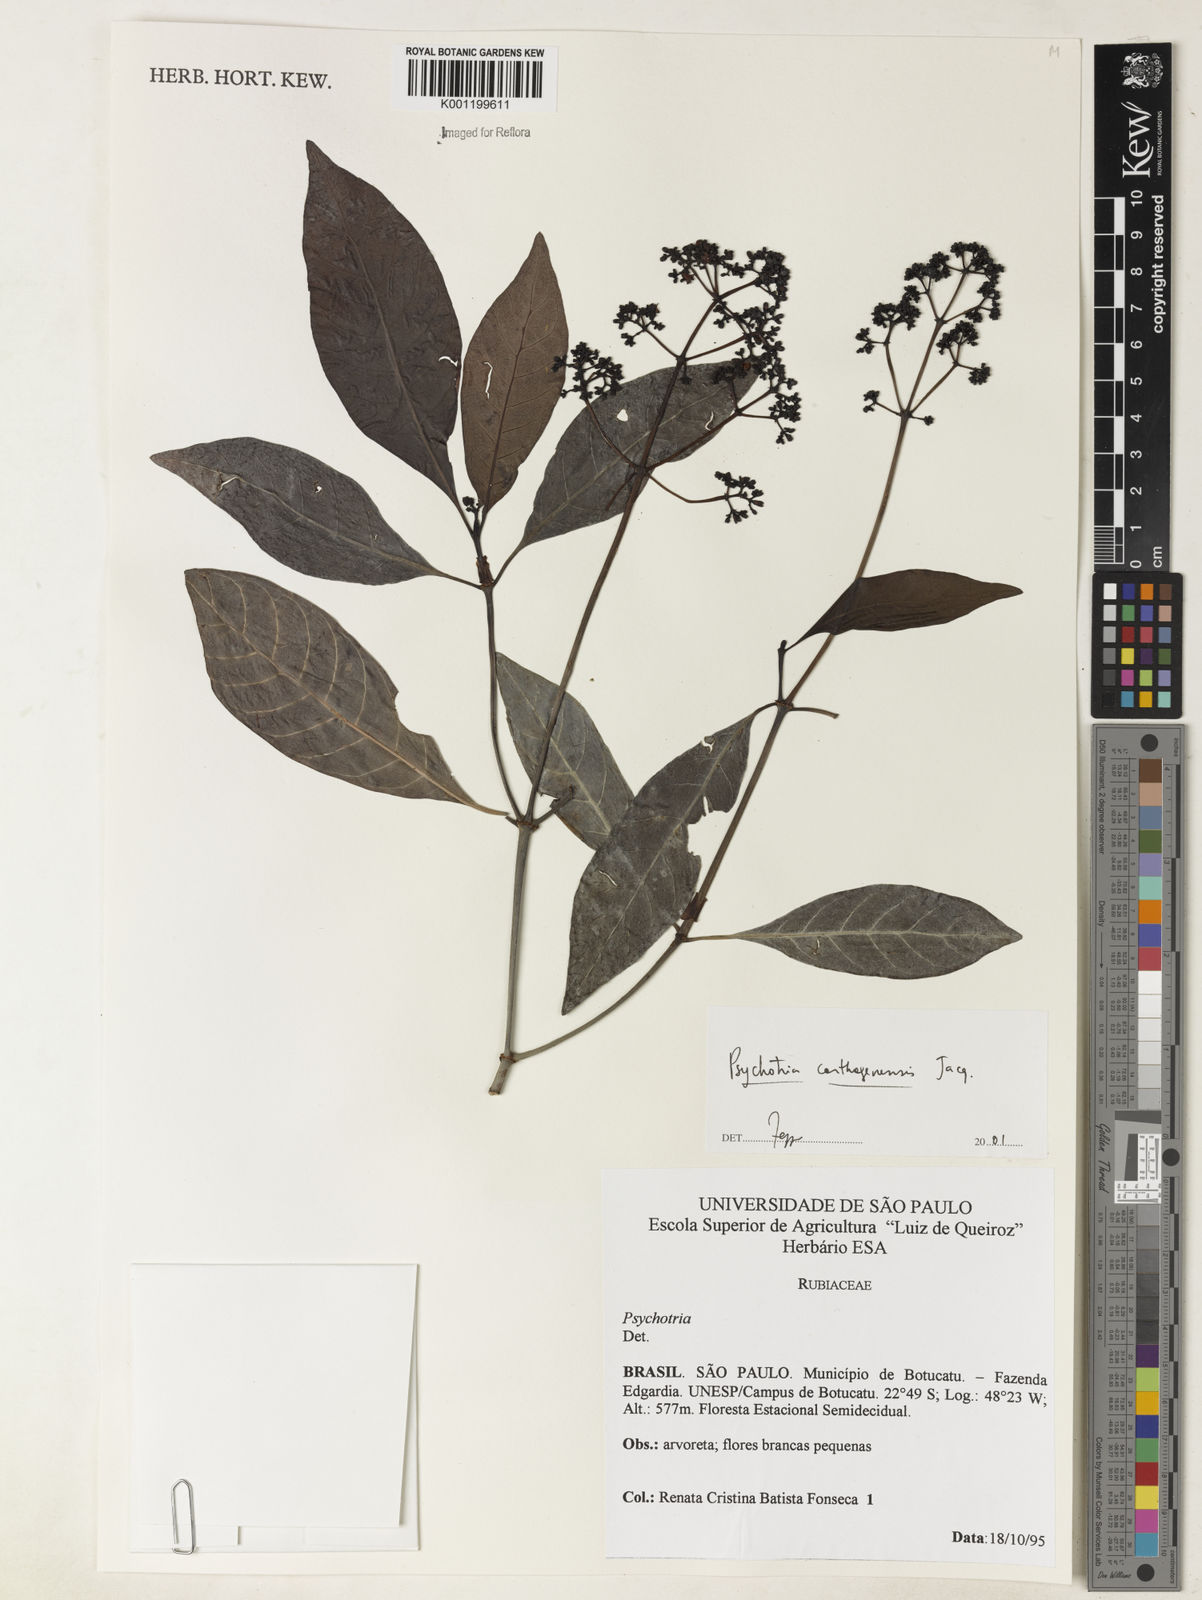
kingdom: Plantae
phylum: Tracheophyta
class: Magnoliopsida
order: Gentianales
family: Rubiaceae
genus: Psychotria
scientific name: Psychotria carthagenensis
